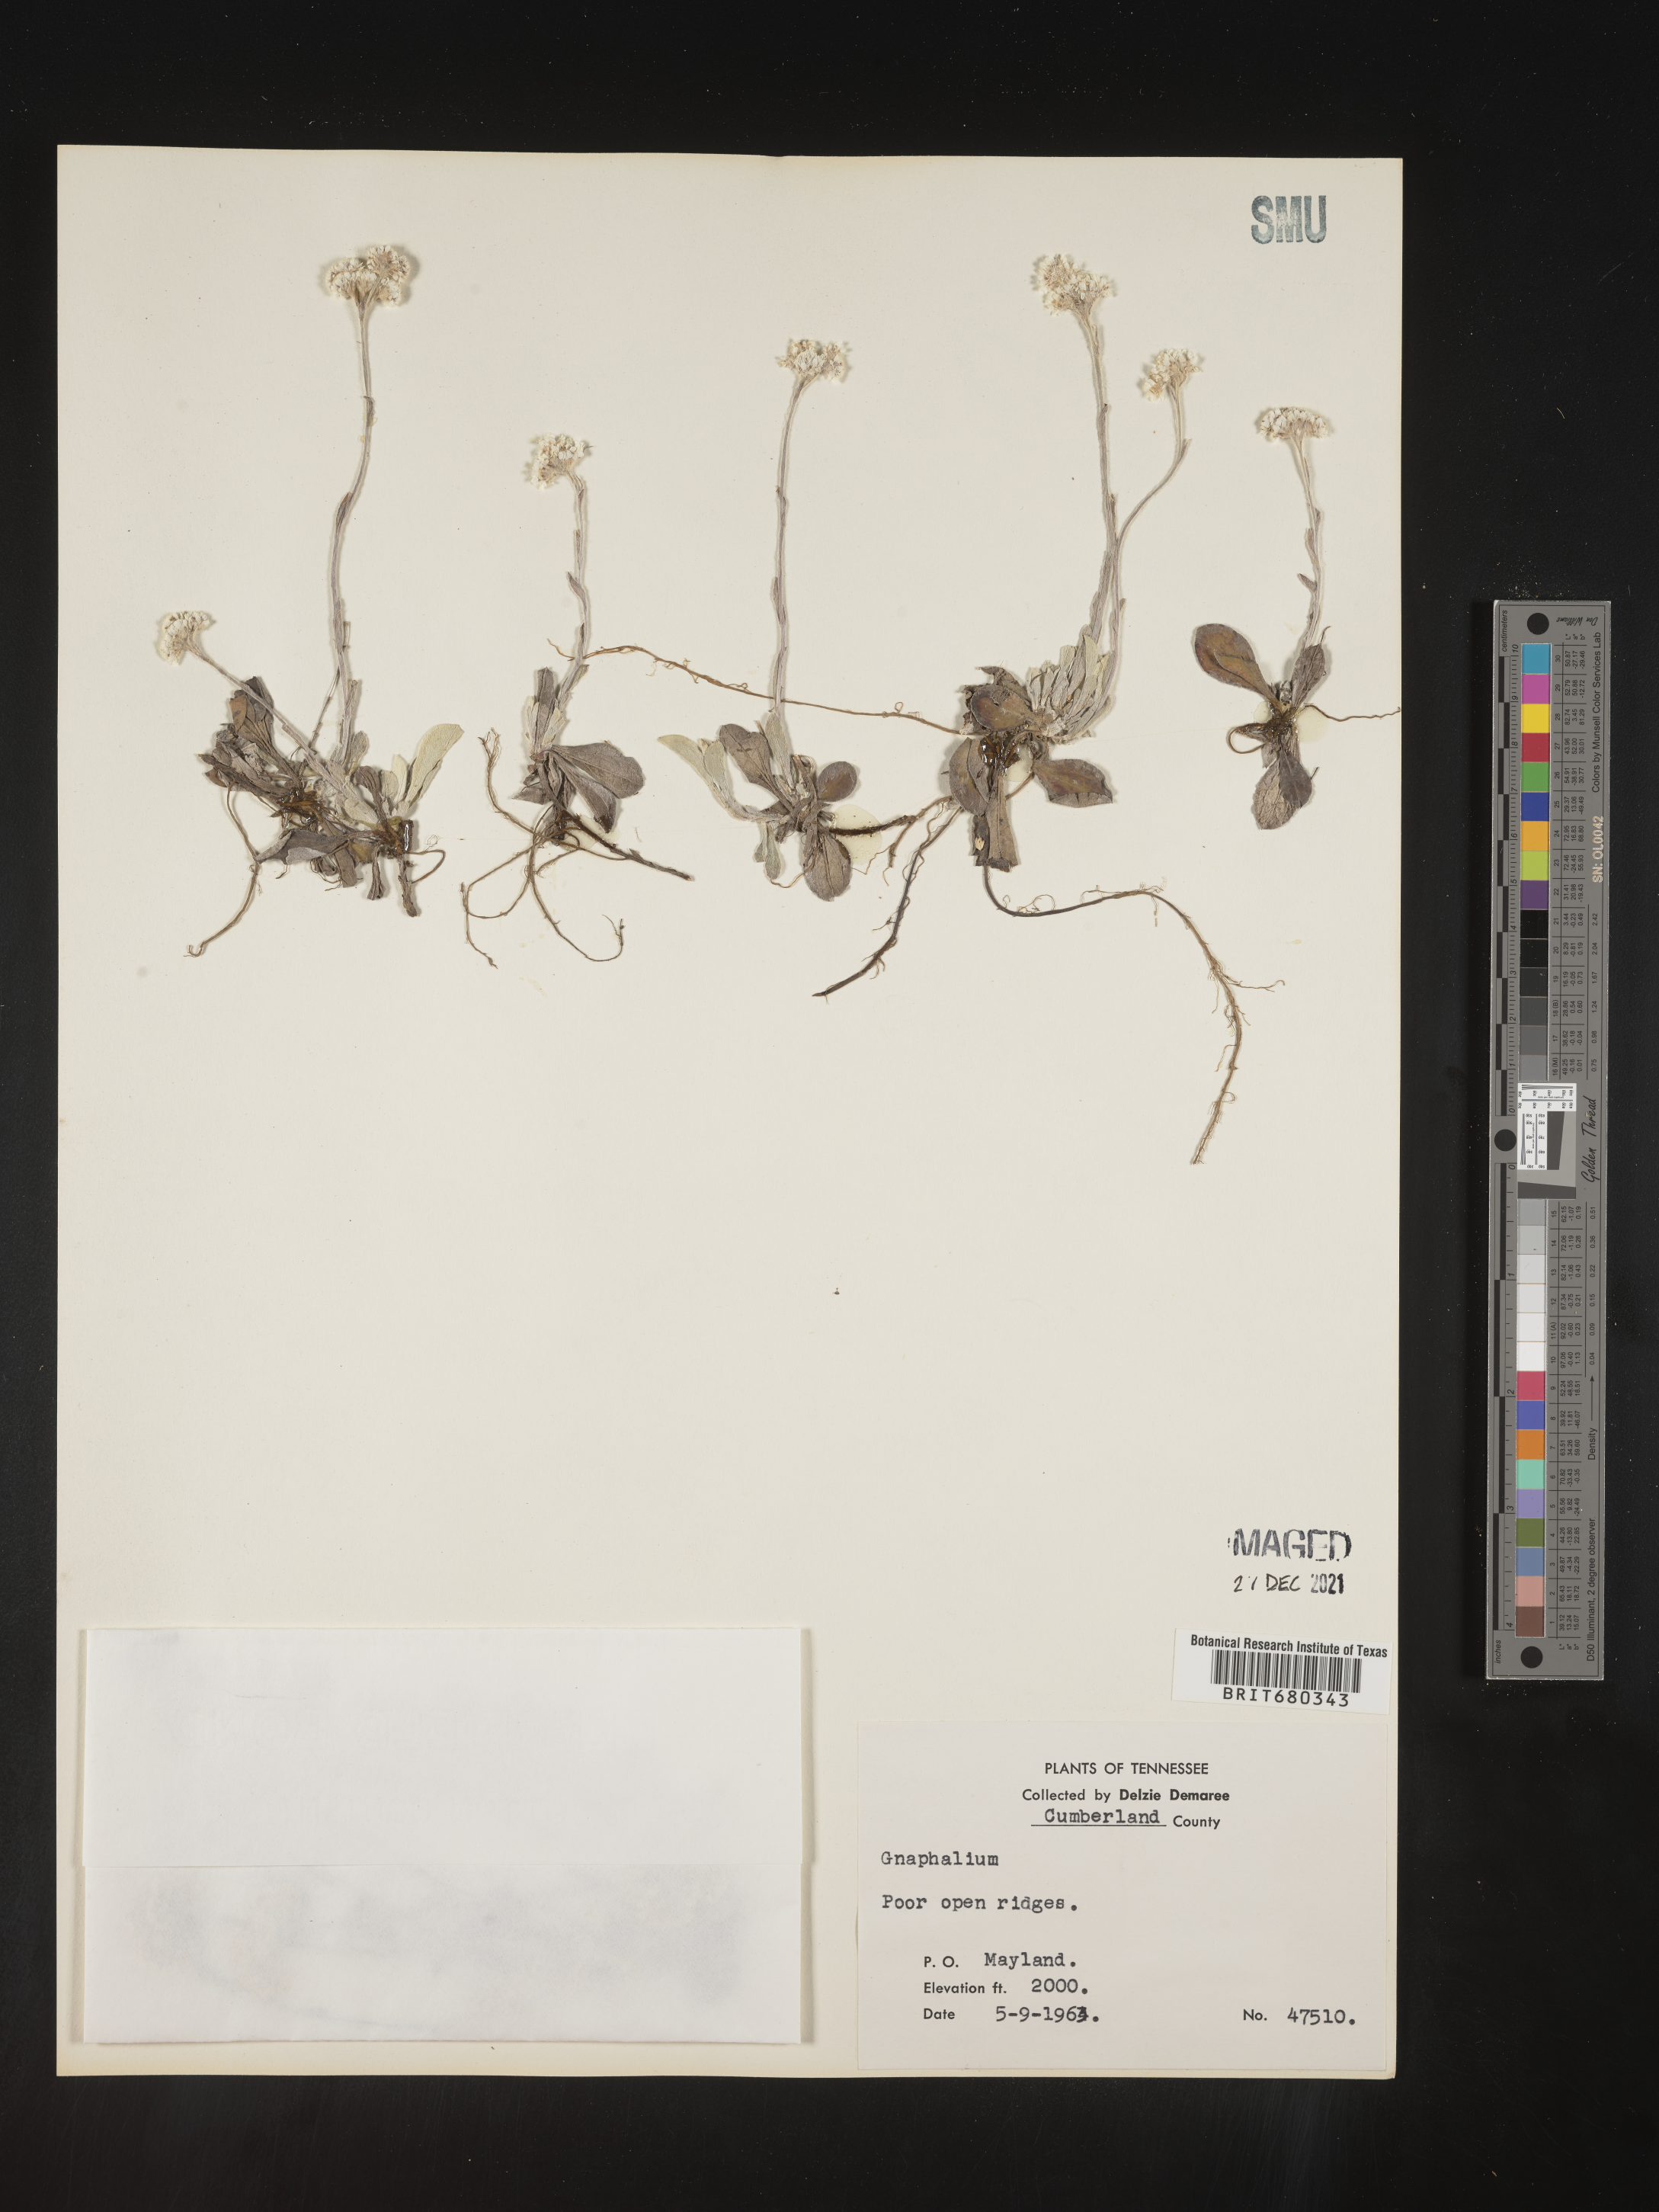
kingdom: Plantae
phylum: Tracheophyta
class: Magnoliopsida
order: Asterales
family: Asteraceae
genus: Antennaria
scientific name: Antennaria
